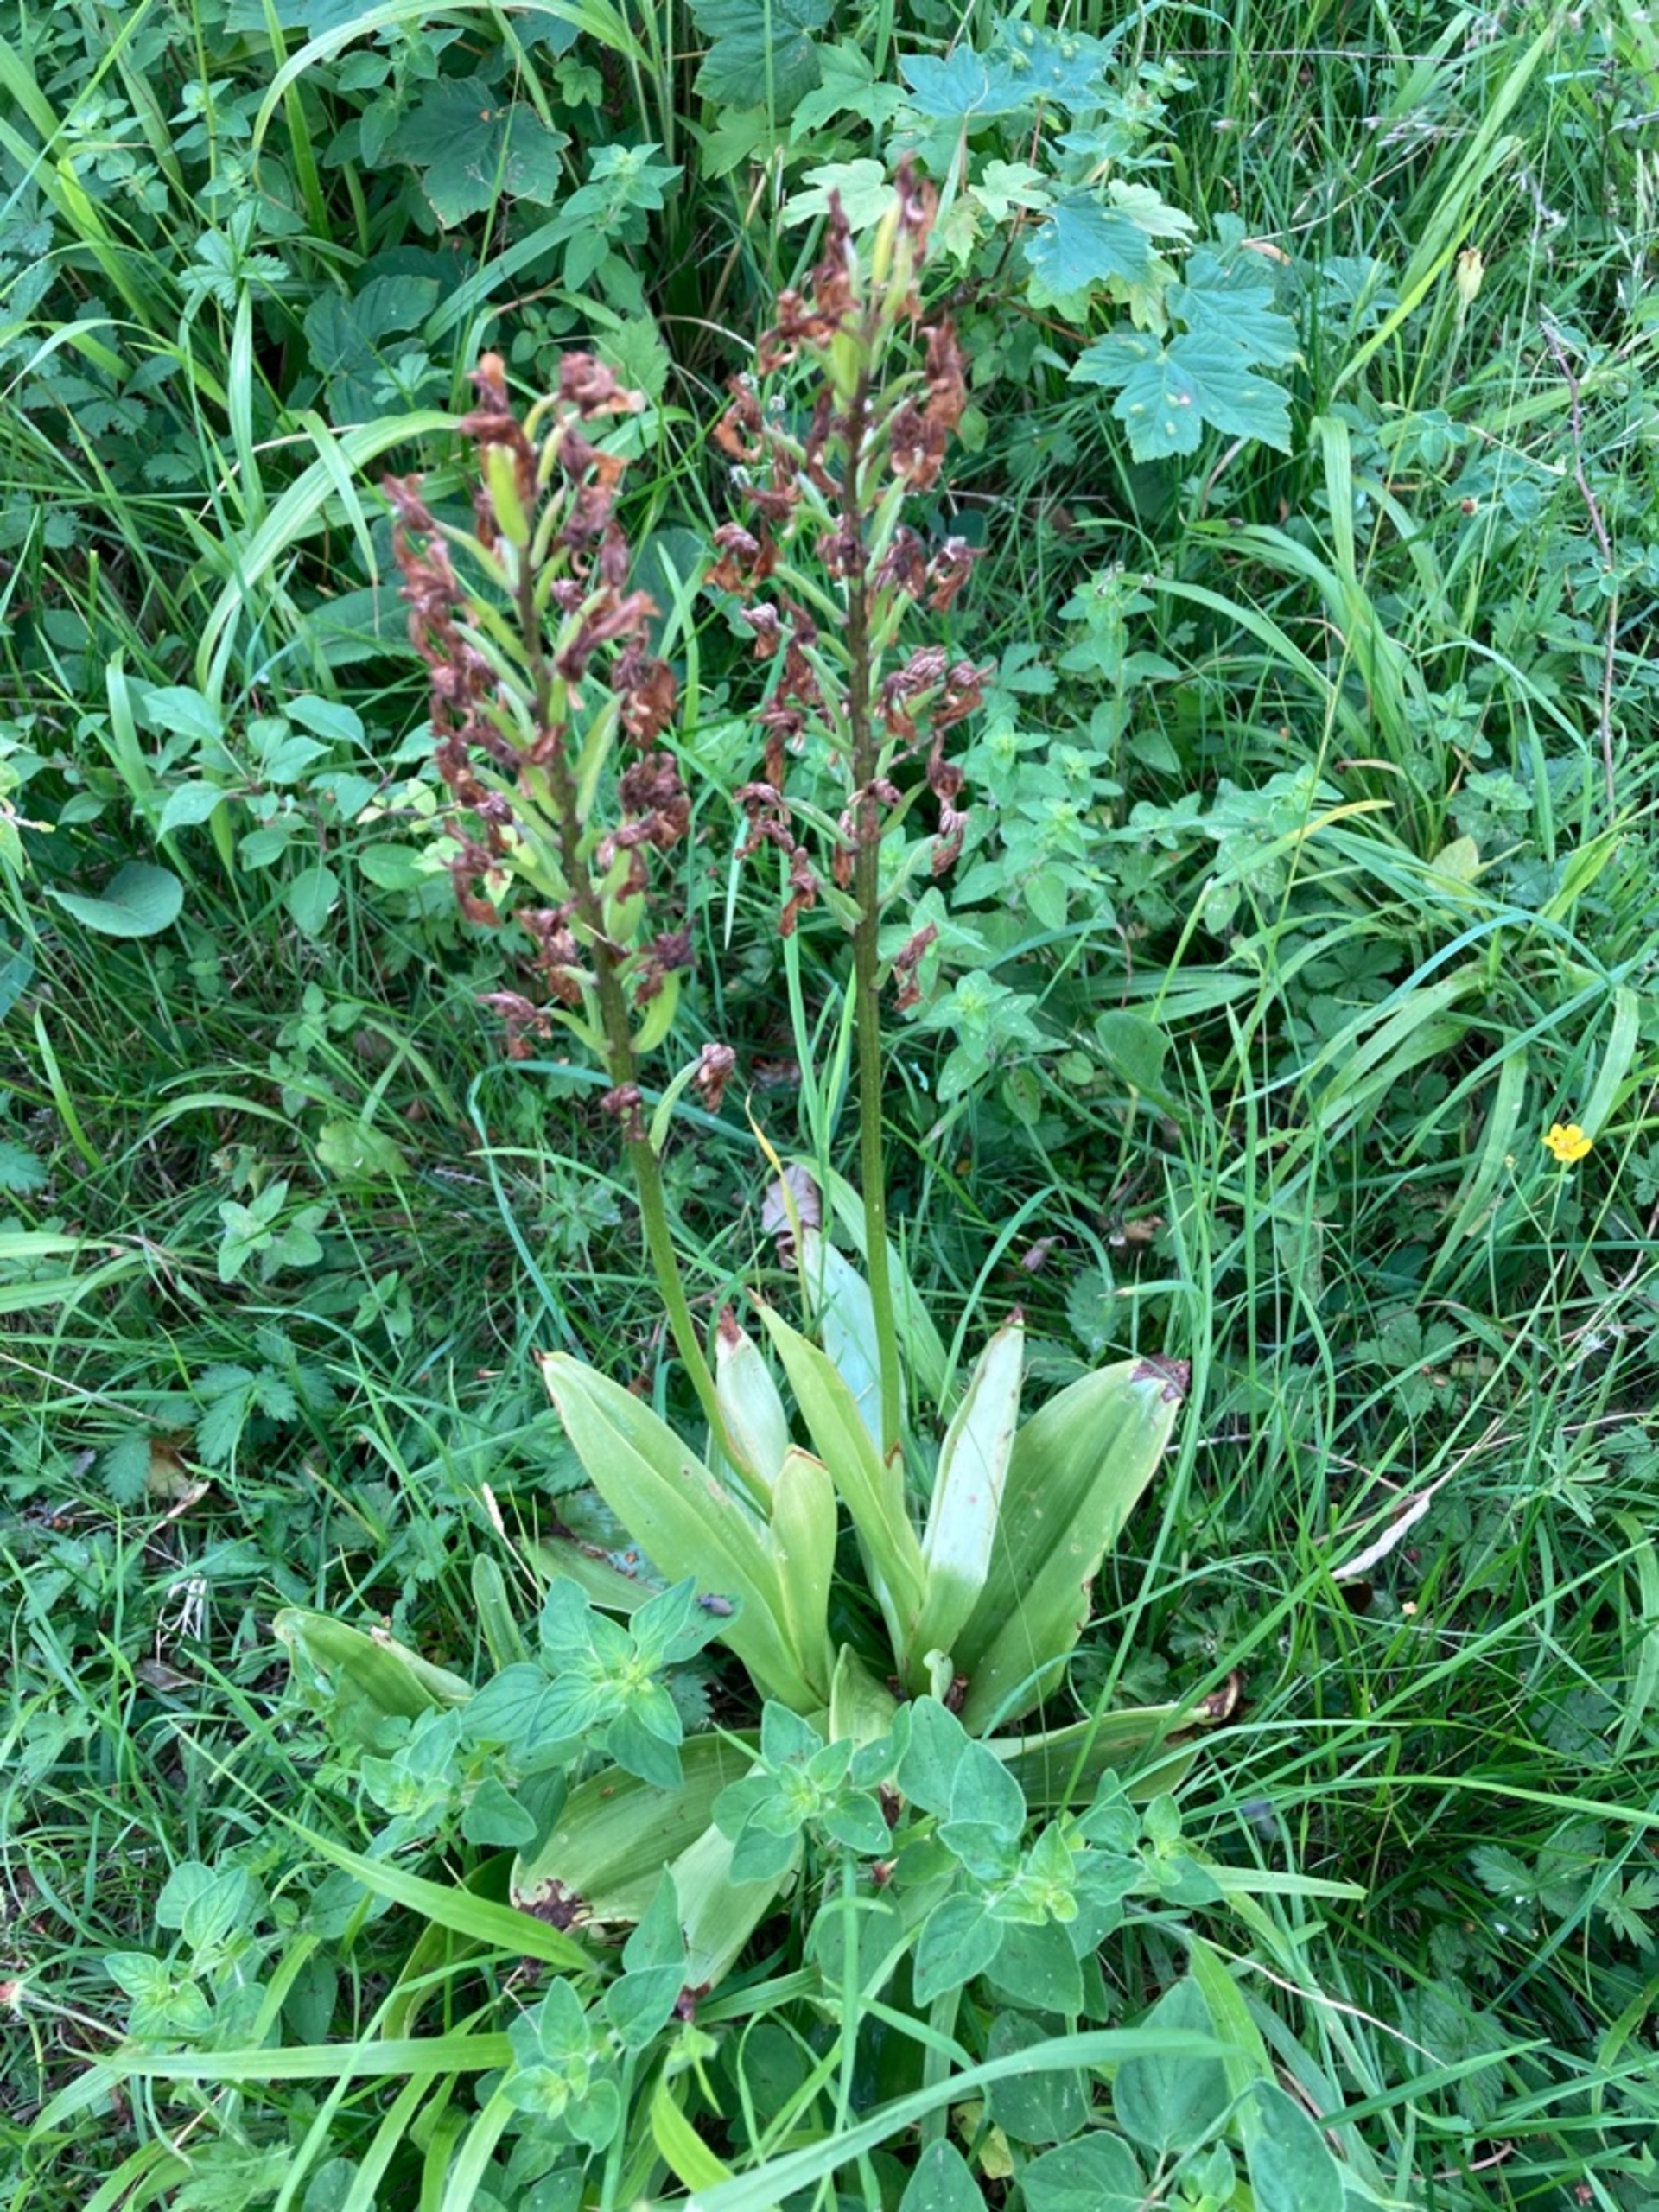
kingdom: Plantae
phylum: Tracheophyta
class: Liliopsida
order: Asparagales
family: Orchidaceae
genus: Orchis
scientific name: Orchis purpurea
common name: Stor gøgeurt
